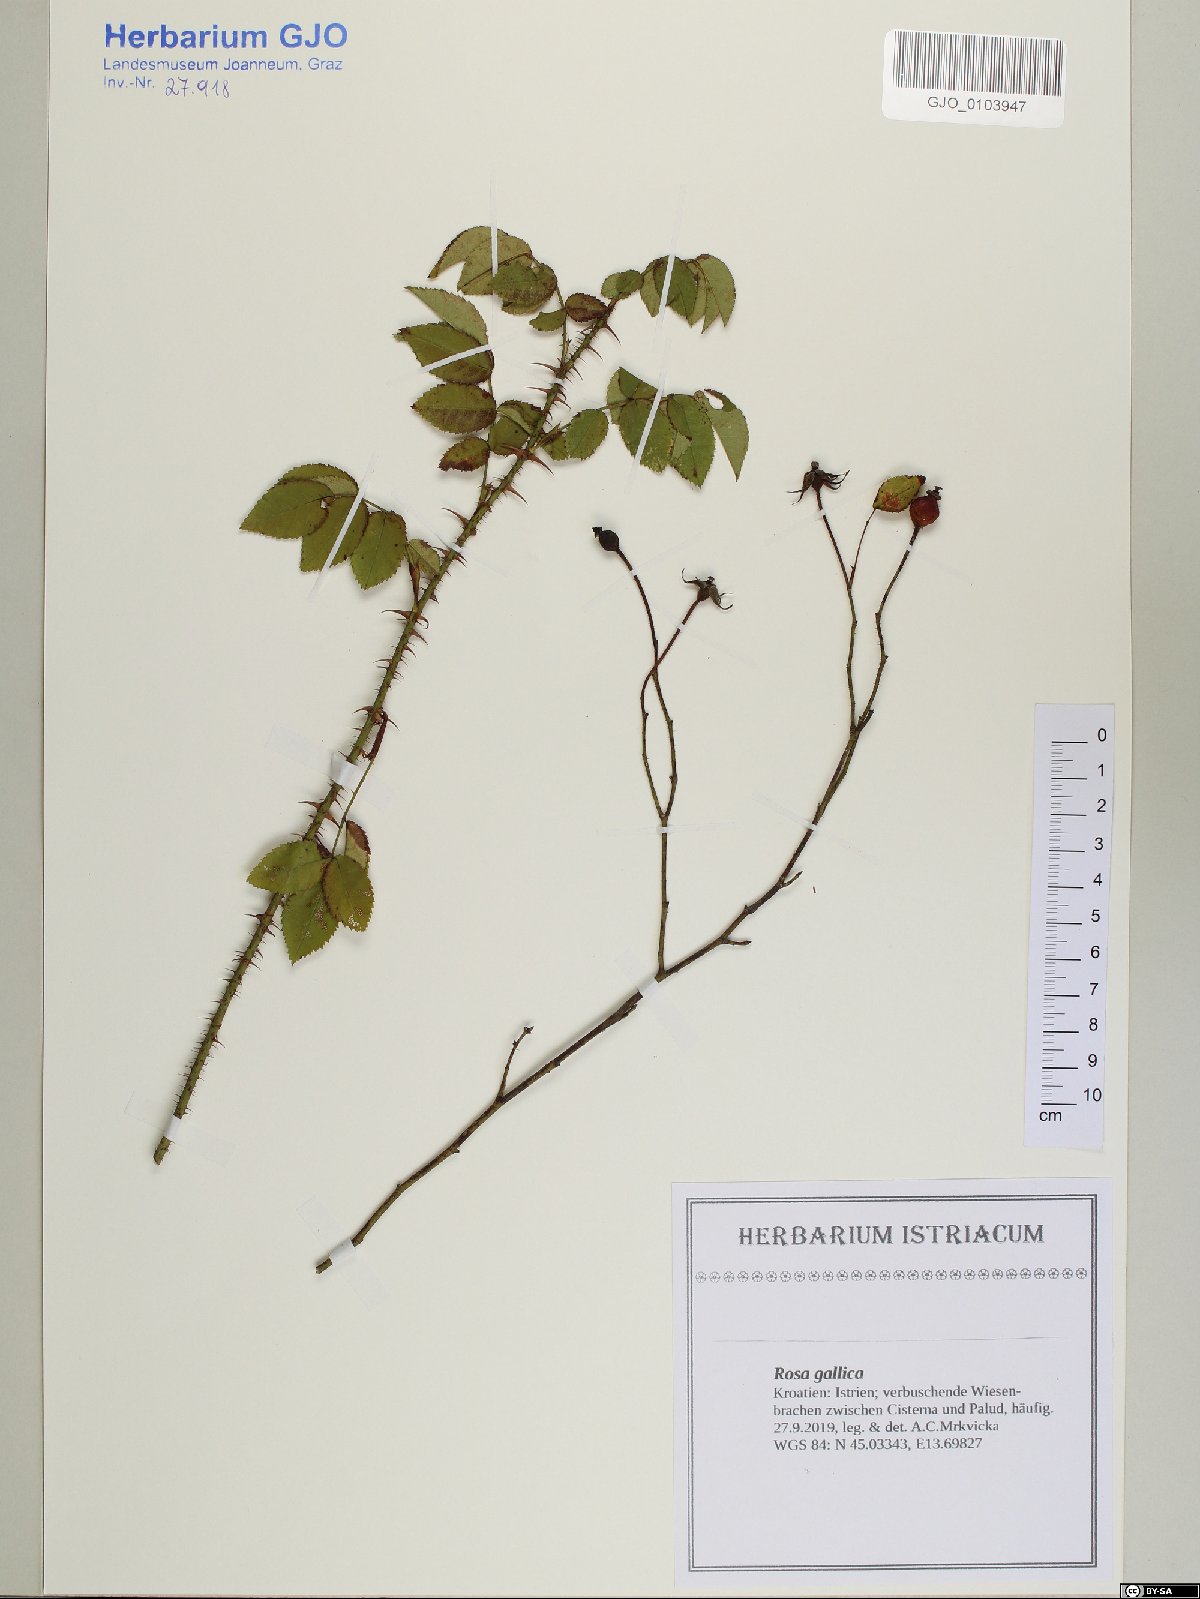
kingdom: Plantae
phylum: Tracheophyta
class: Magnoliopsida
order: Rosales
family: Rosaceae
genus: Rosa
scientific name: Rosa gallica
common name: French rose
